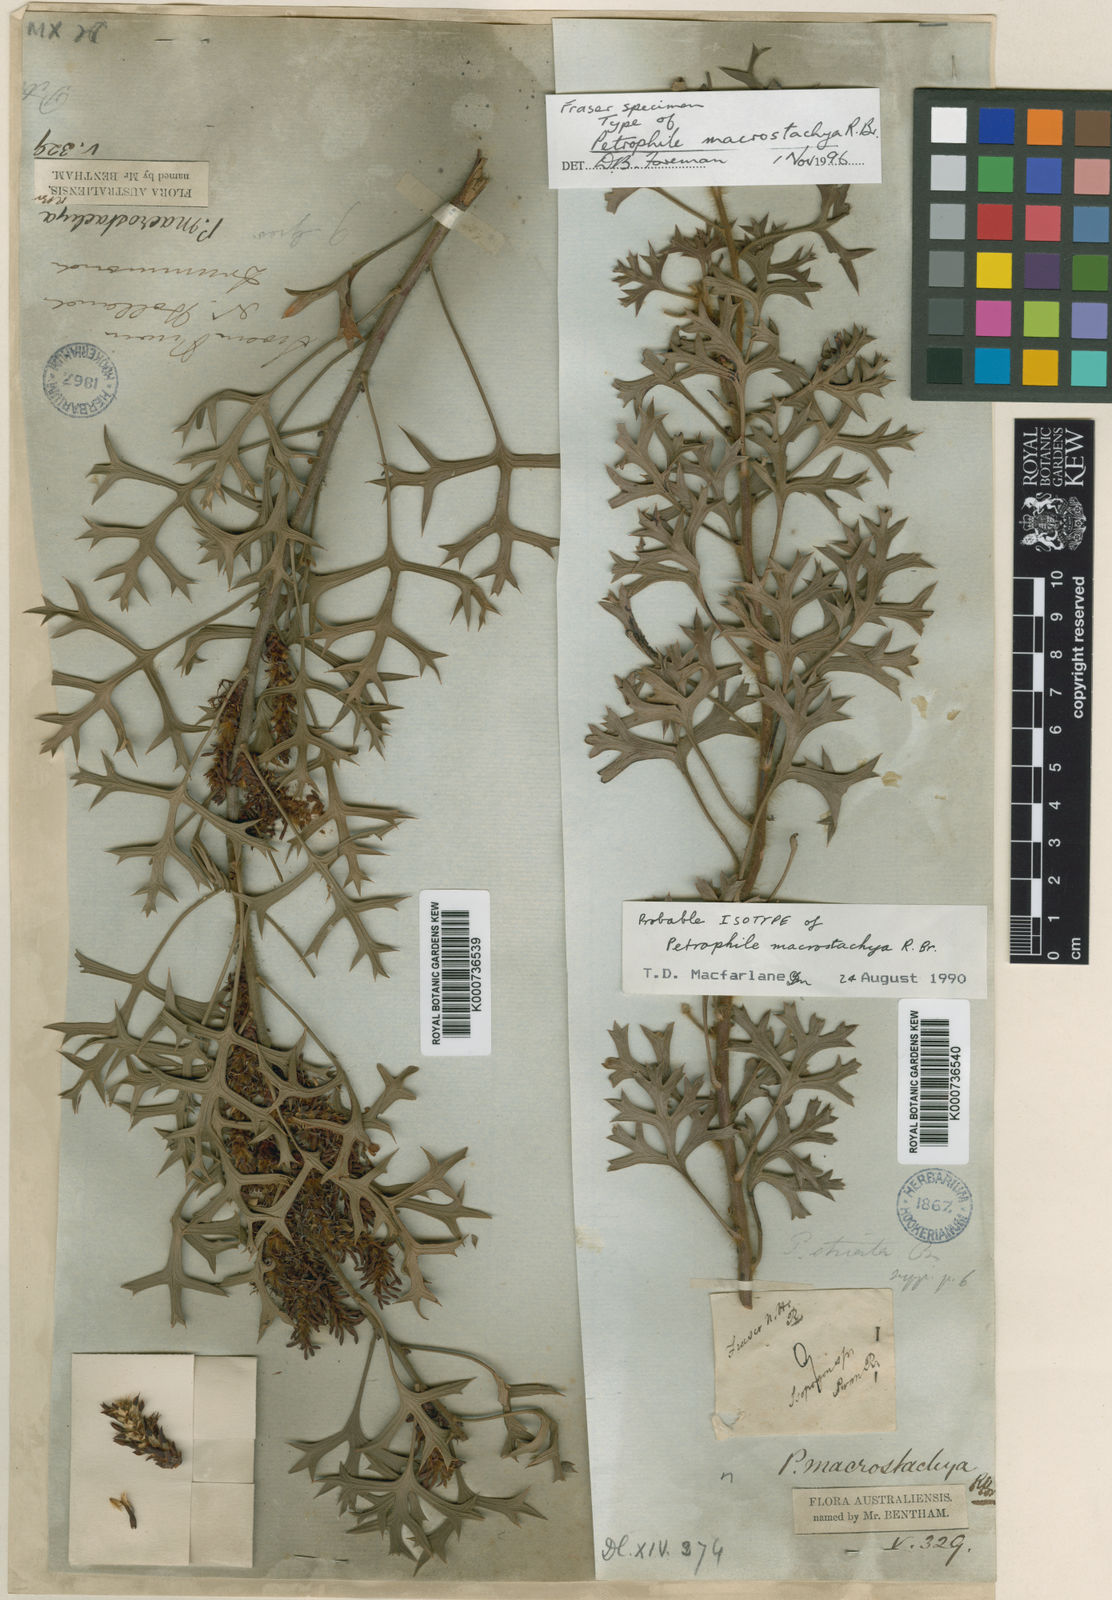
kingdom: Plantae
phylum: Tracheophyta
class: Magnoliopsida
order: Proteales
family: Proteaceae
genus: Petrophile
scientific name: Petrophile macrostachya
